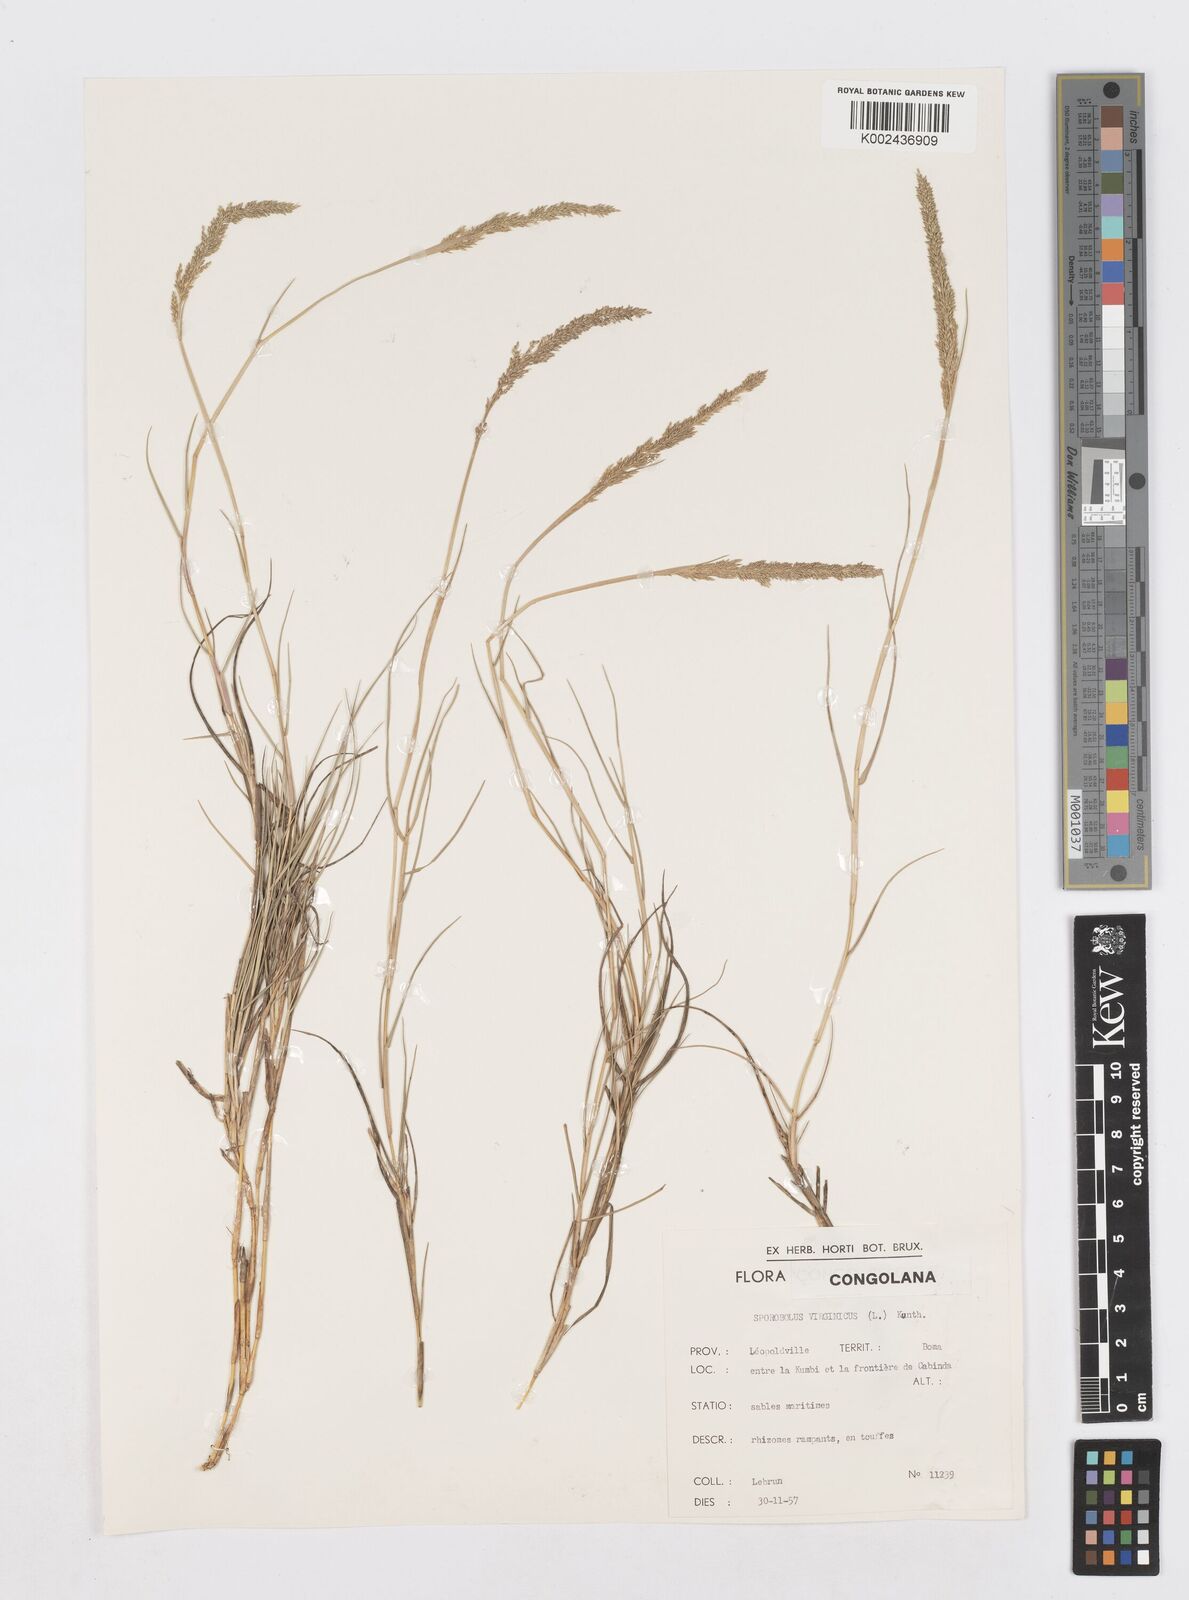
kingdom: Plantae
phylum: Tracheophyta
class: Liliopsida
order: Poales
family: Poaceae
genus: Sporobolus
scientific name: Sporobolus virginicus
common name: Beach dropseed
